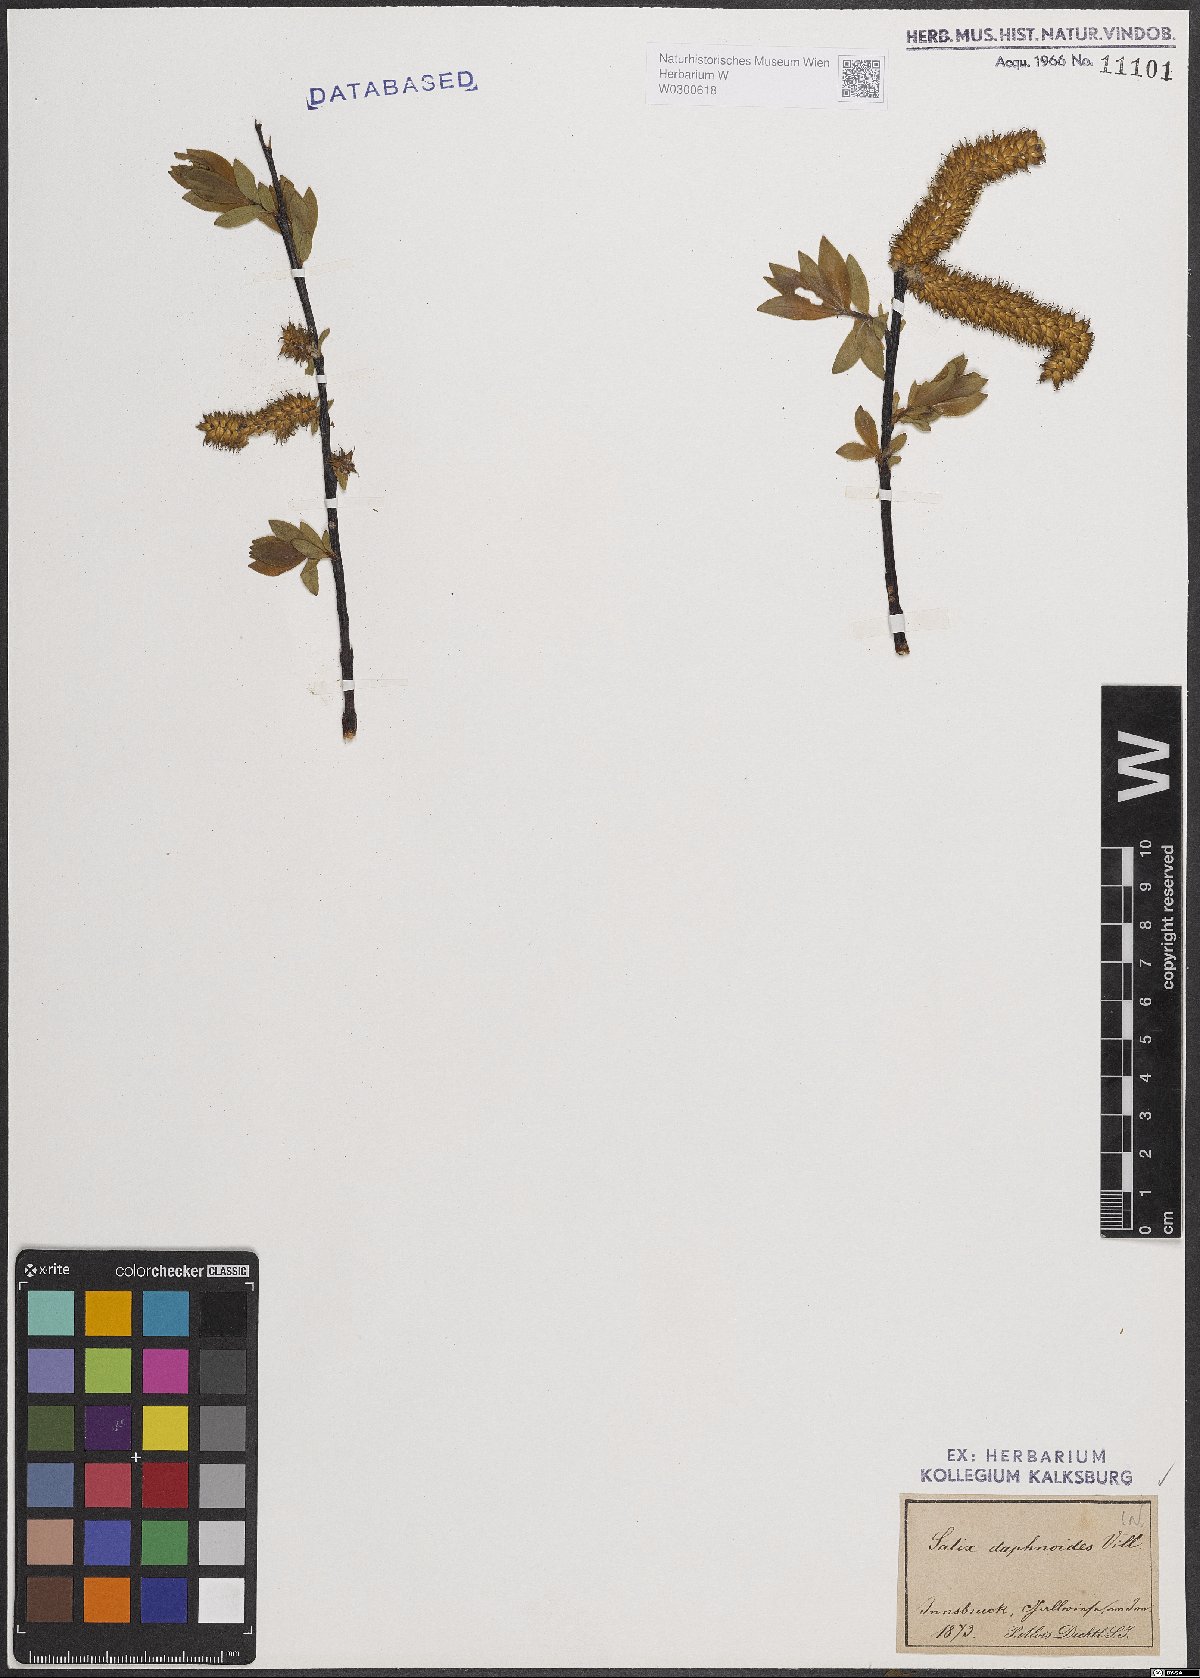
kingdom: Plantae
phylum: Tracheophyta
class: Magnoliopsida
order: Malpighiales
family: Salicaceae
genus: Salix
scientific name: Salix daphnoides
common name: European violet-willow
